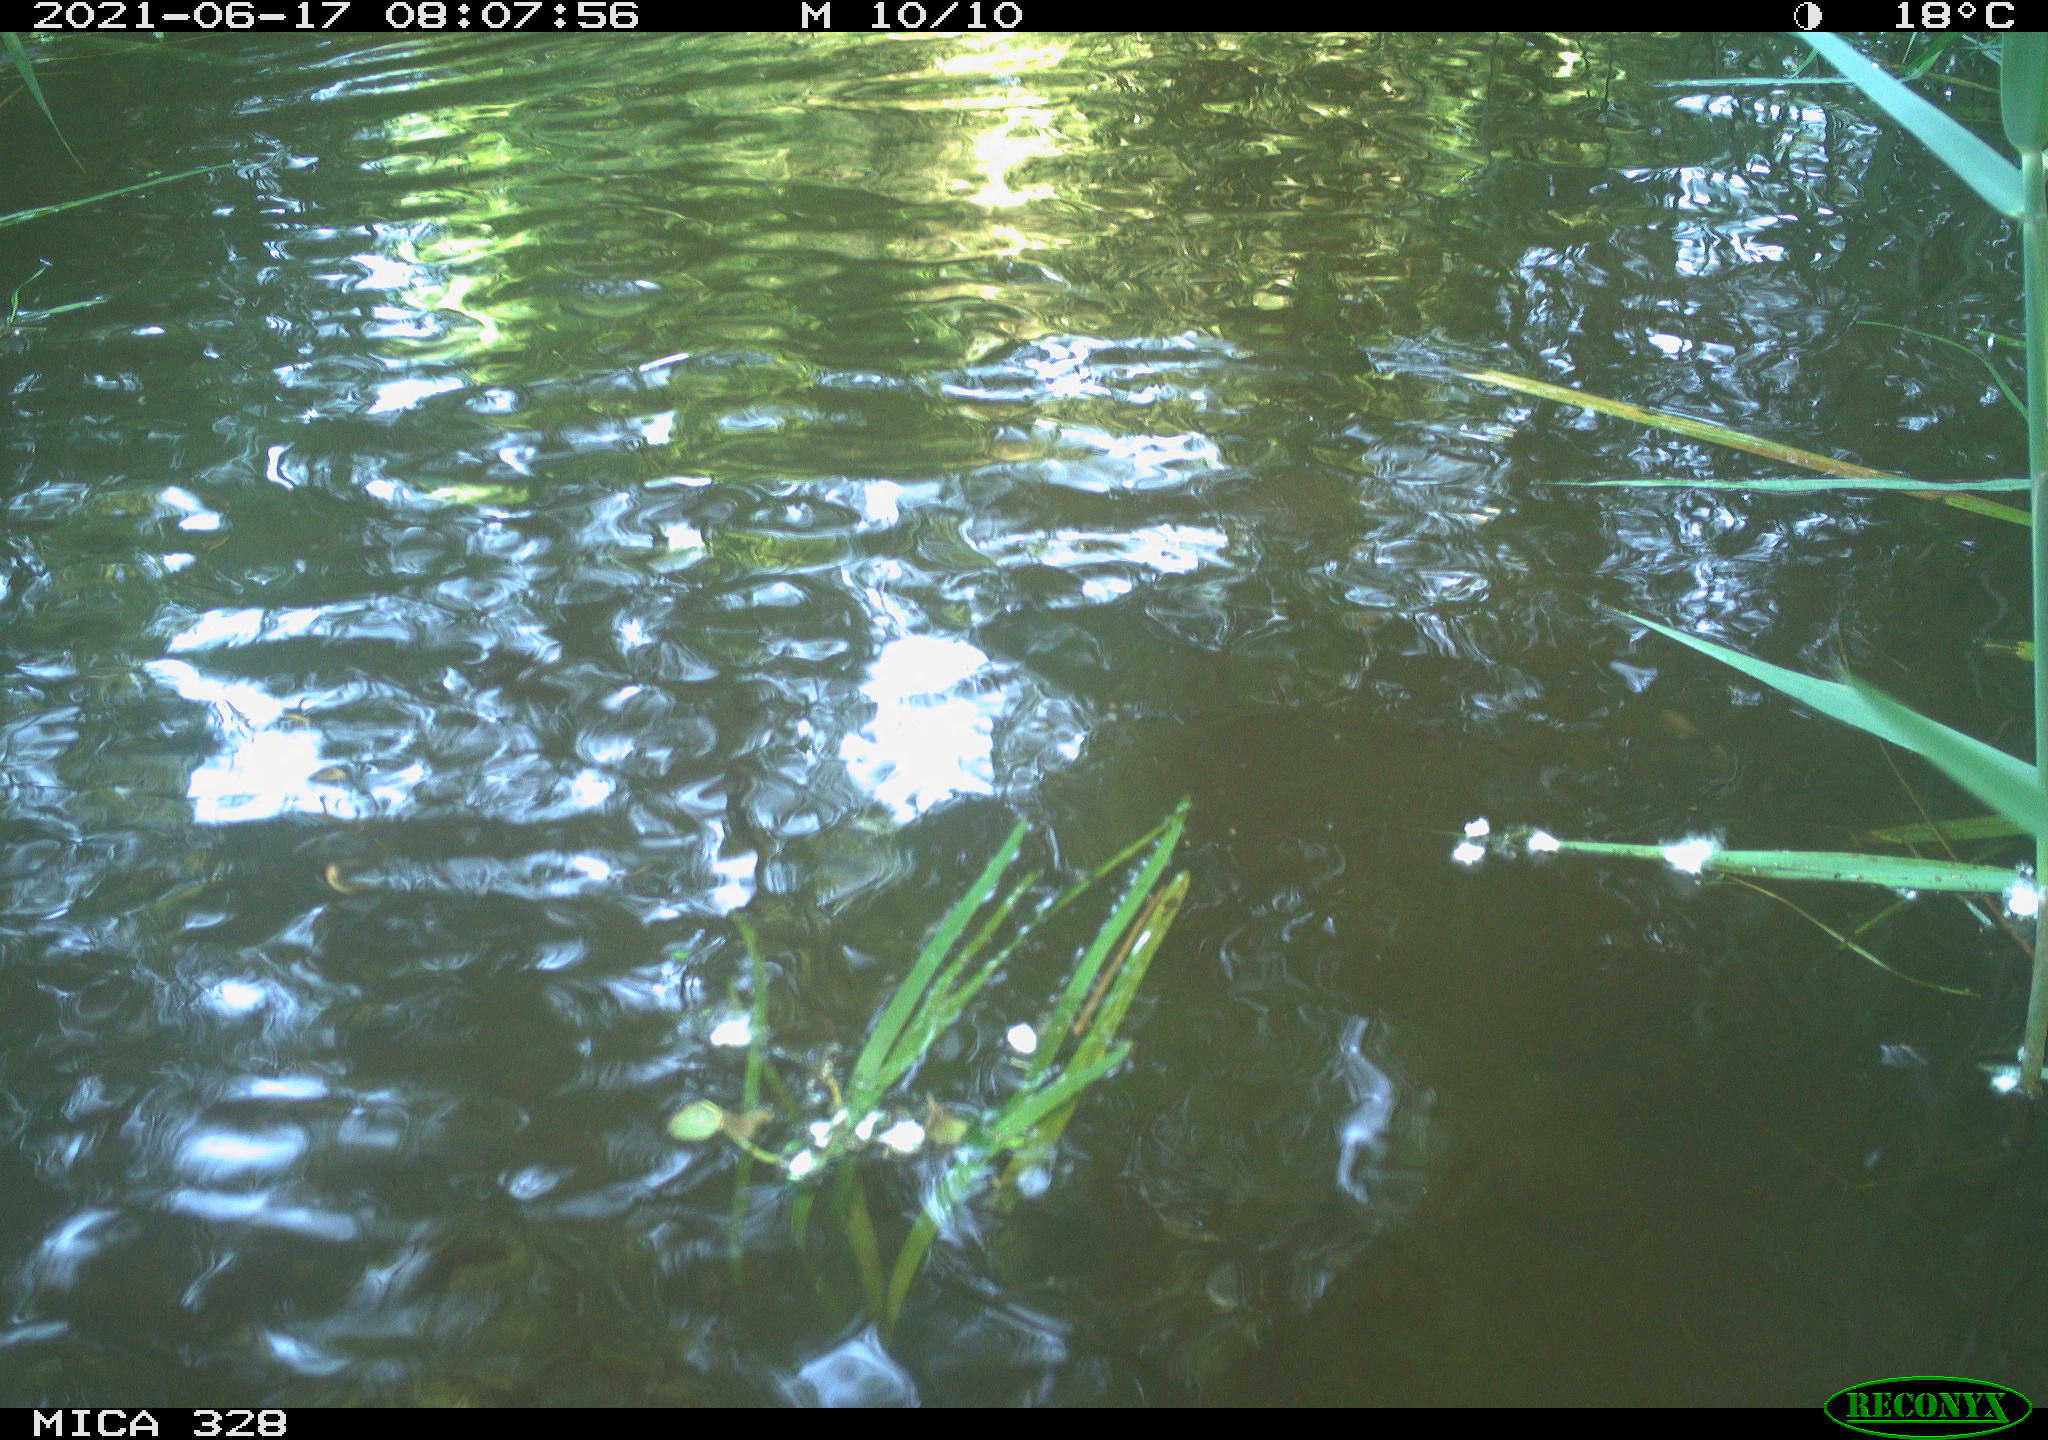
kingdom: Animalia
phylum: Chordata
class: Aves
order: Anseriformes
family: Anatidae
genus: Aix
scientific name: Aix galericulata
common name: Mandarin duck
